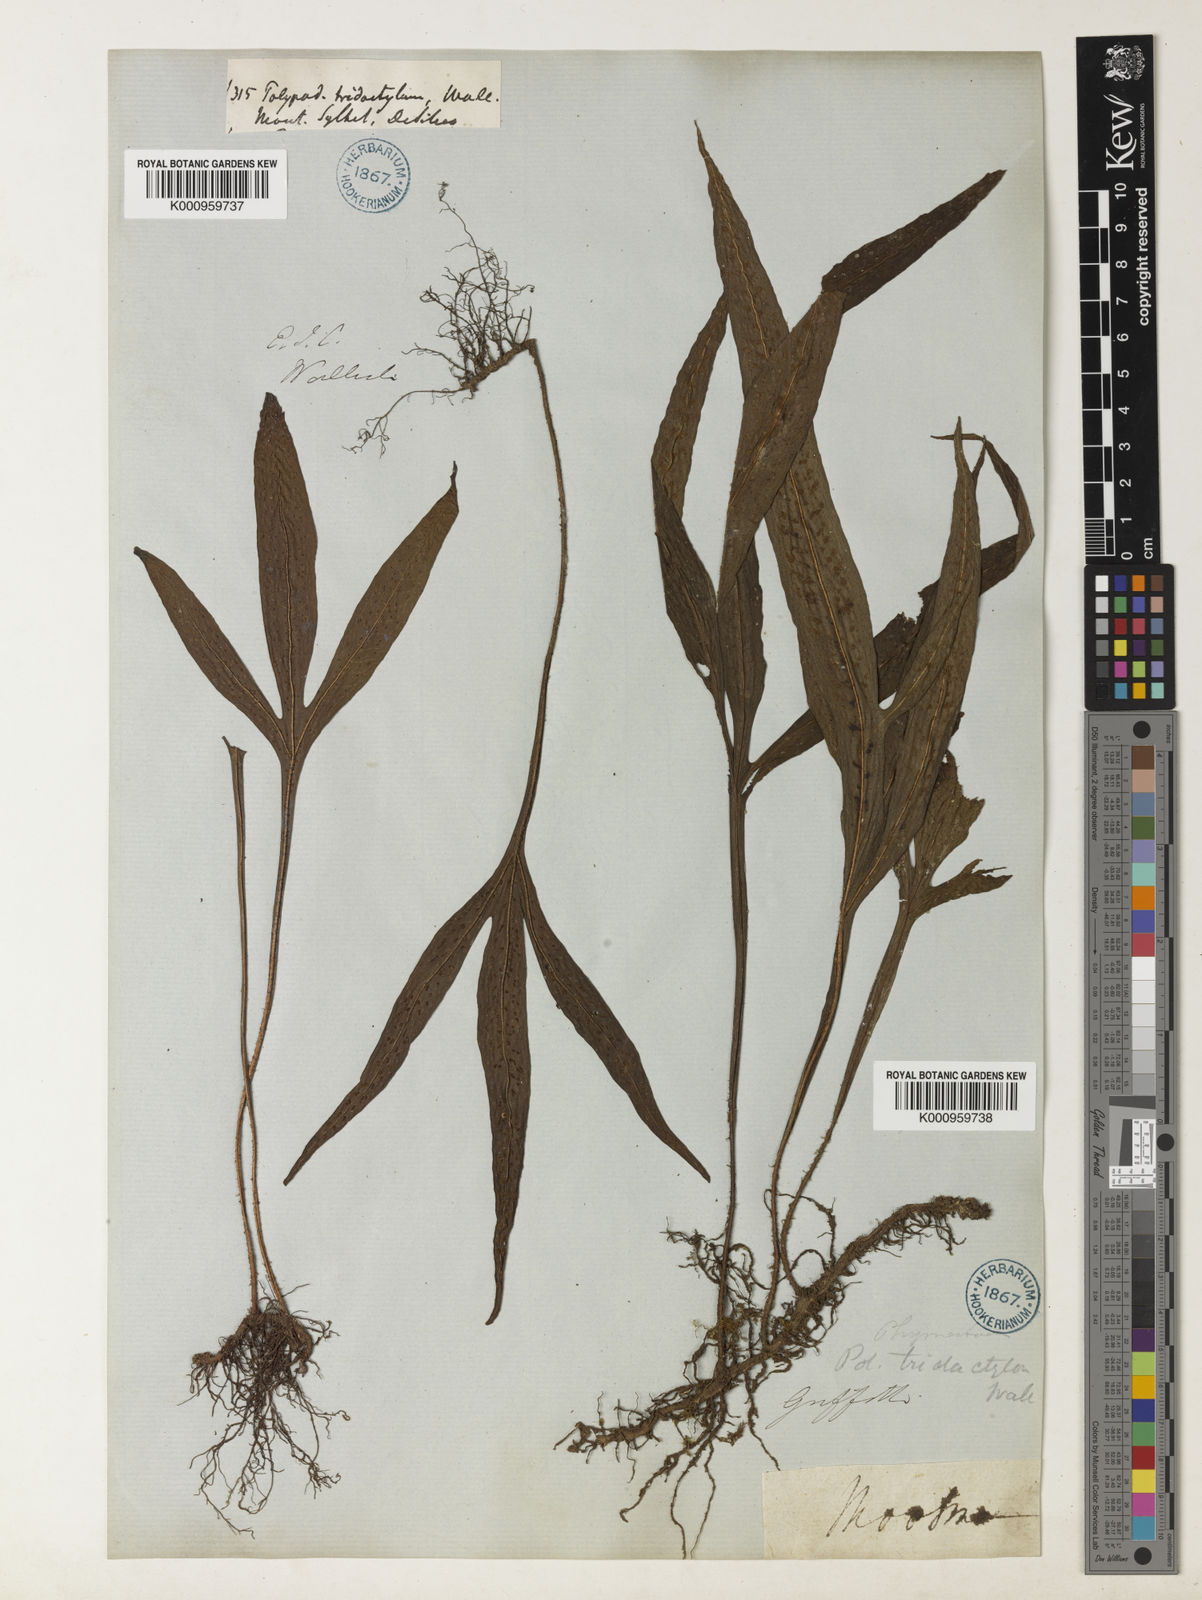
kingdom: Plantae
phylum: Tracheophyta
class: Polypodiopsida
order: Polypodiales
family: Polypodiaceae
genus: Leptochilus
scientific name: Leptochilus pteropus
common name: Java fern
